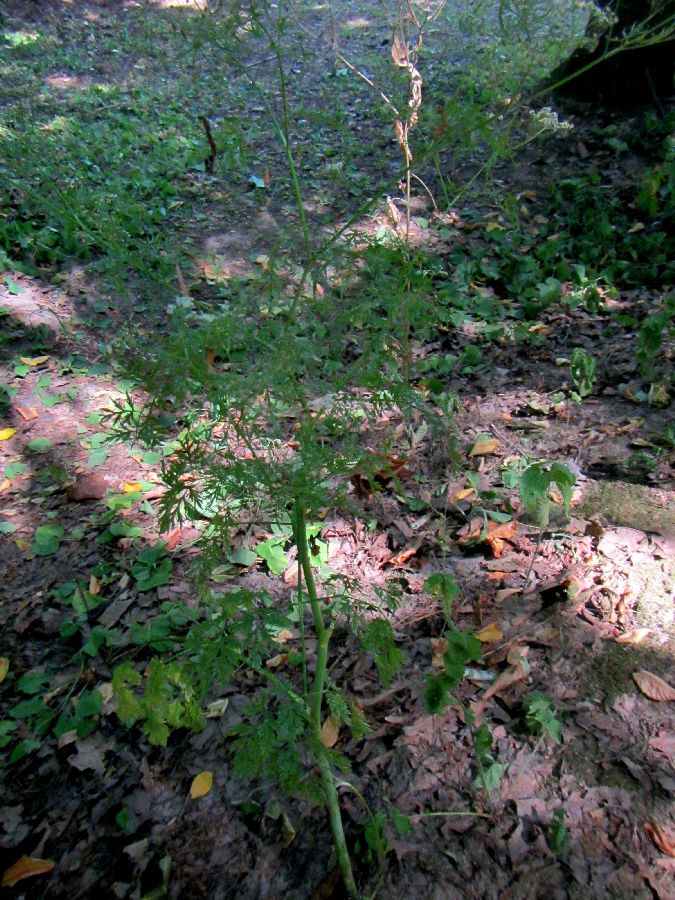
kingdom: Plantae
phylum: Tracheophyta
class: Magnoliopsida
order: Apiales
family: Apiaceae
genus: Aethusa
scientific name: Aethusa cynapium
